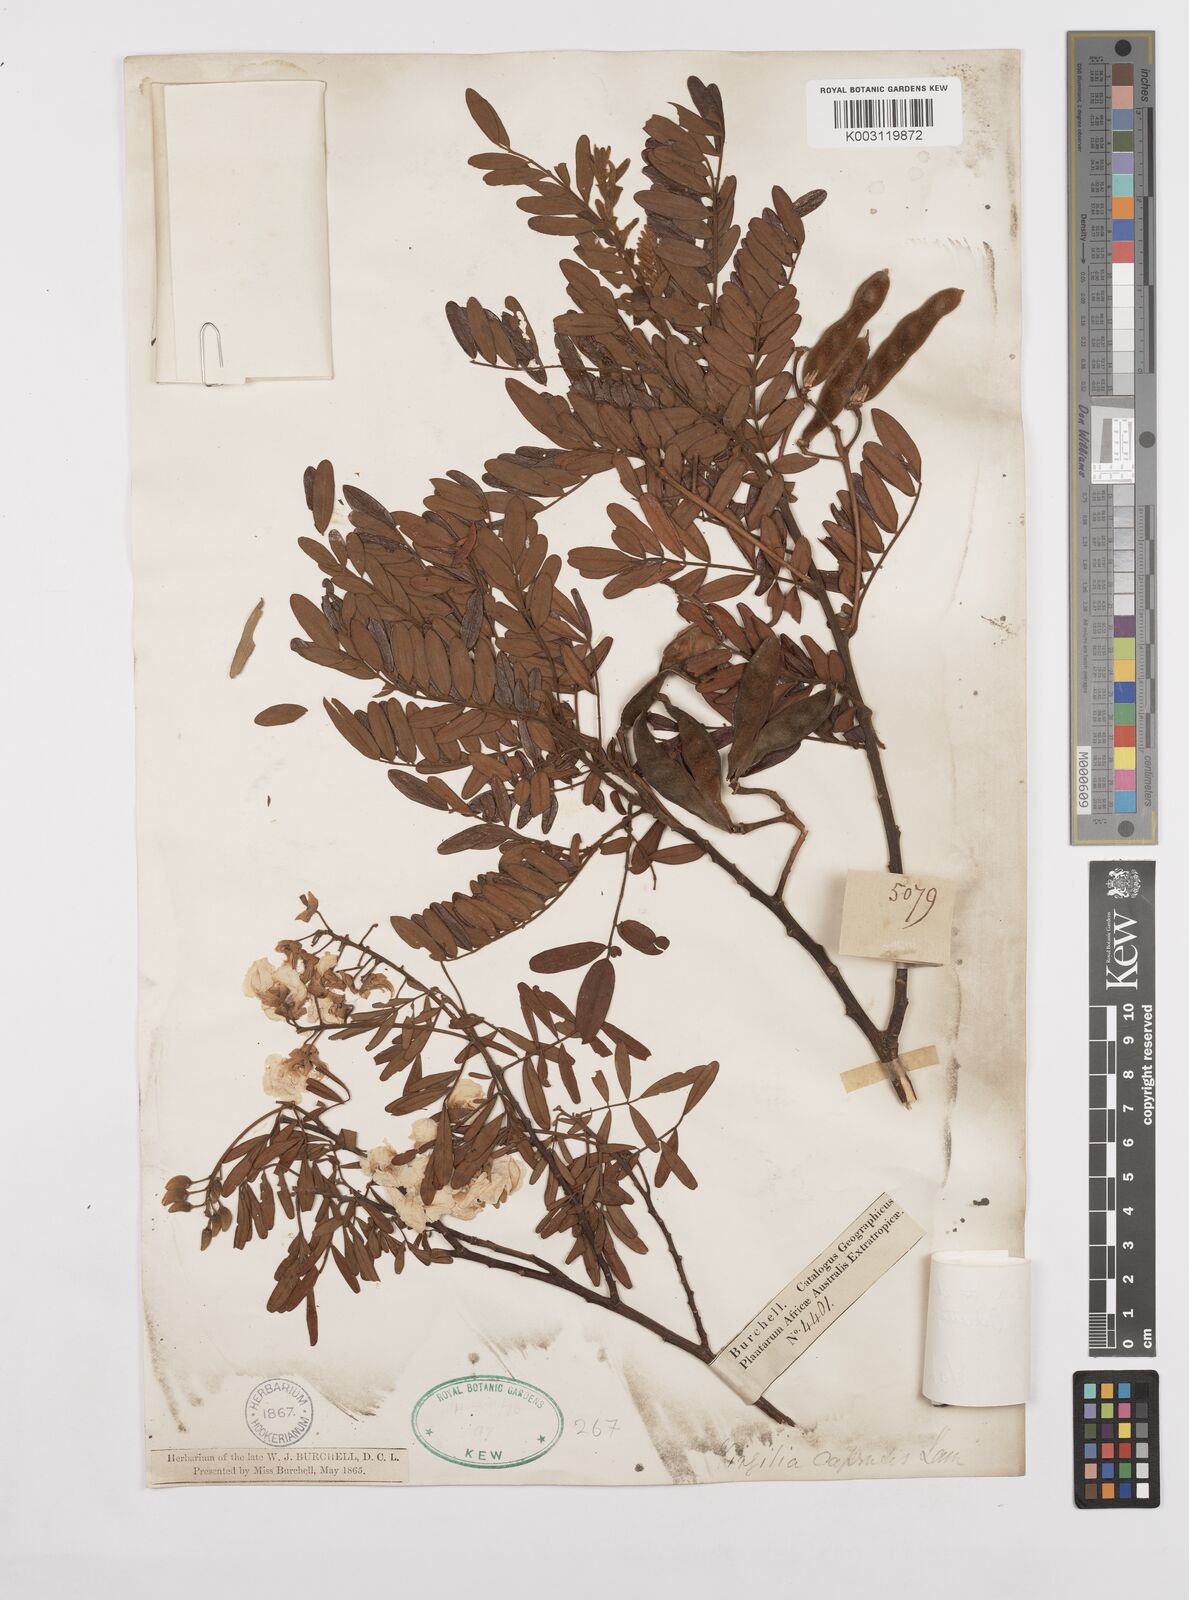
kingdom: Plantae
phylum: Tracheophyta
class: Magnoliopsida
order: Fabales
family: Fabaceae
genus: Virgilia
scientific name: Virgilia divaricata
